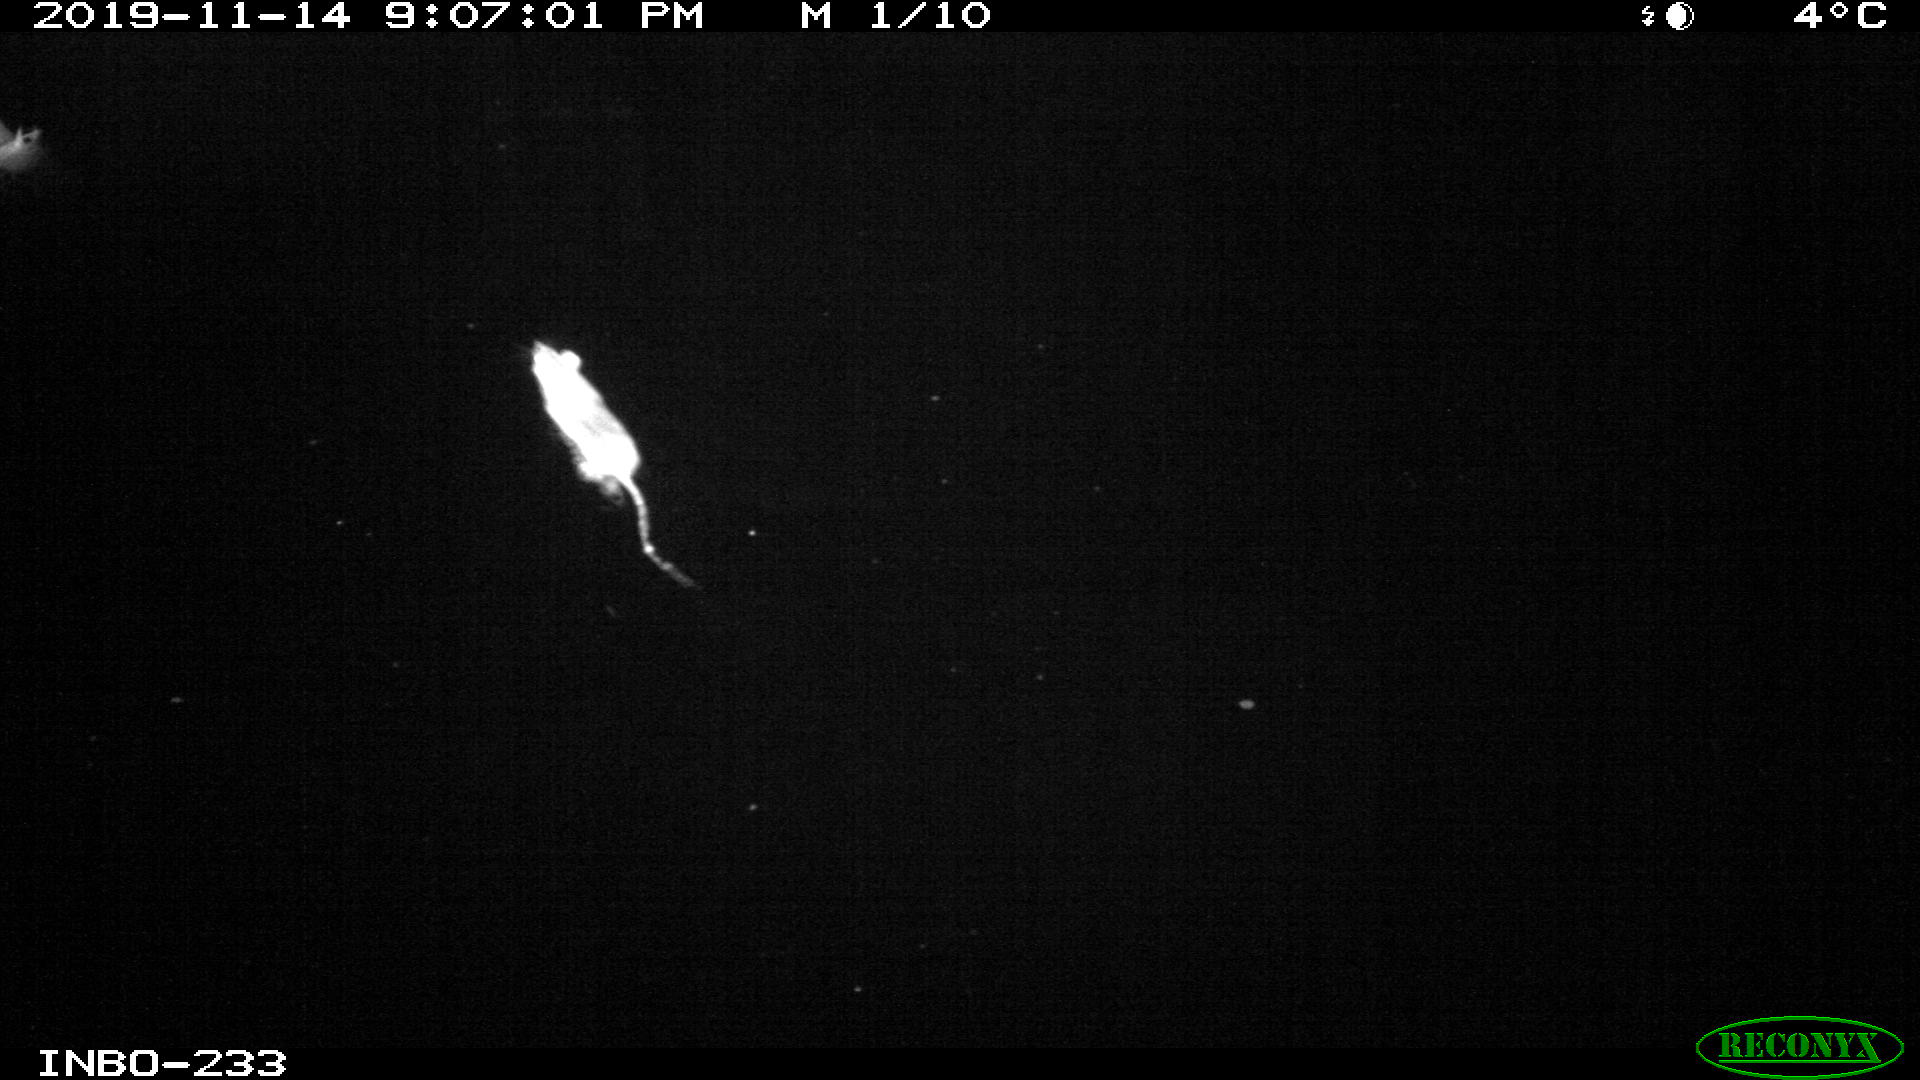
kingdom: Animalia
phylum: Chordata
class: Mammalia
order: Rodentia
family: Muridae
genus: Rattus
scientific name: Rattus norvegicus
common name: Brown rat
